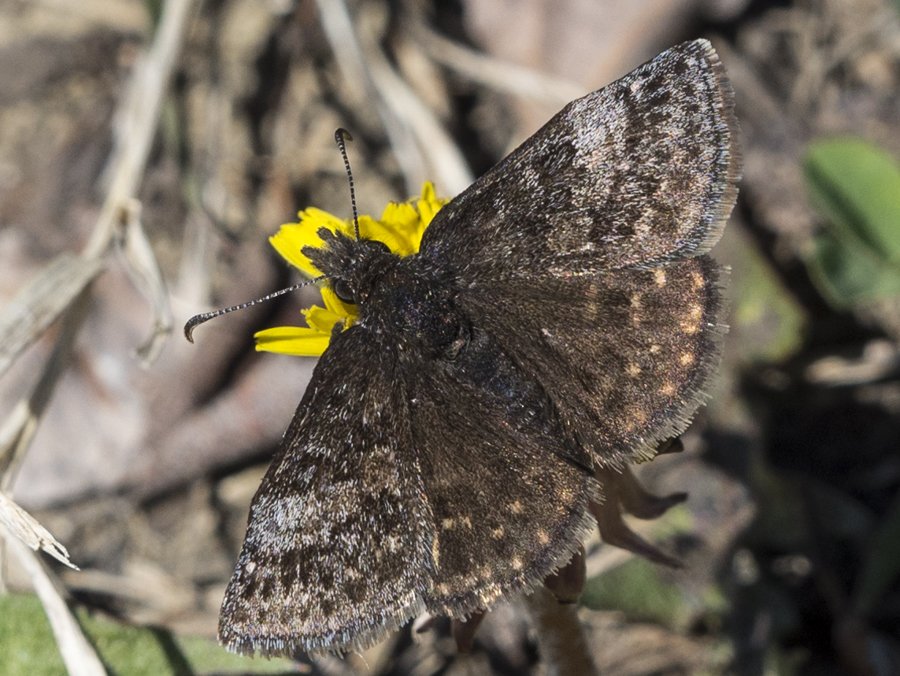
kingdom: Animalia
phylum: Arthropoda
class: Insecta
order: Lepidoptera
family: Hesperiidae
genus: Erynnis
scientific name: Erynnis icelus
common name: Dreamy Duskywing
